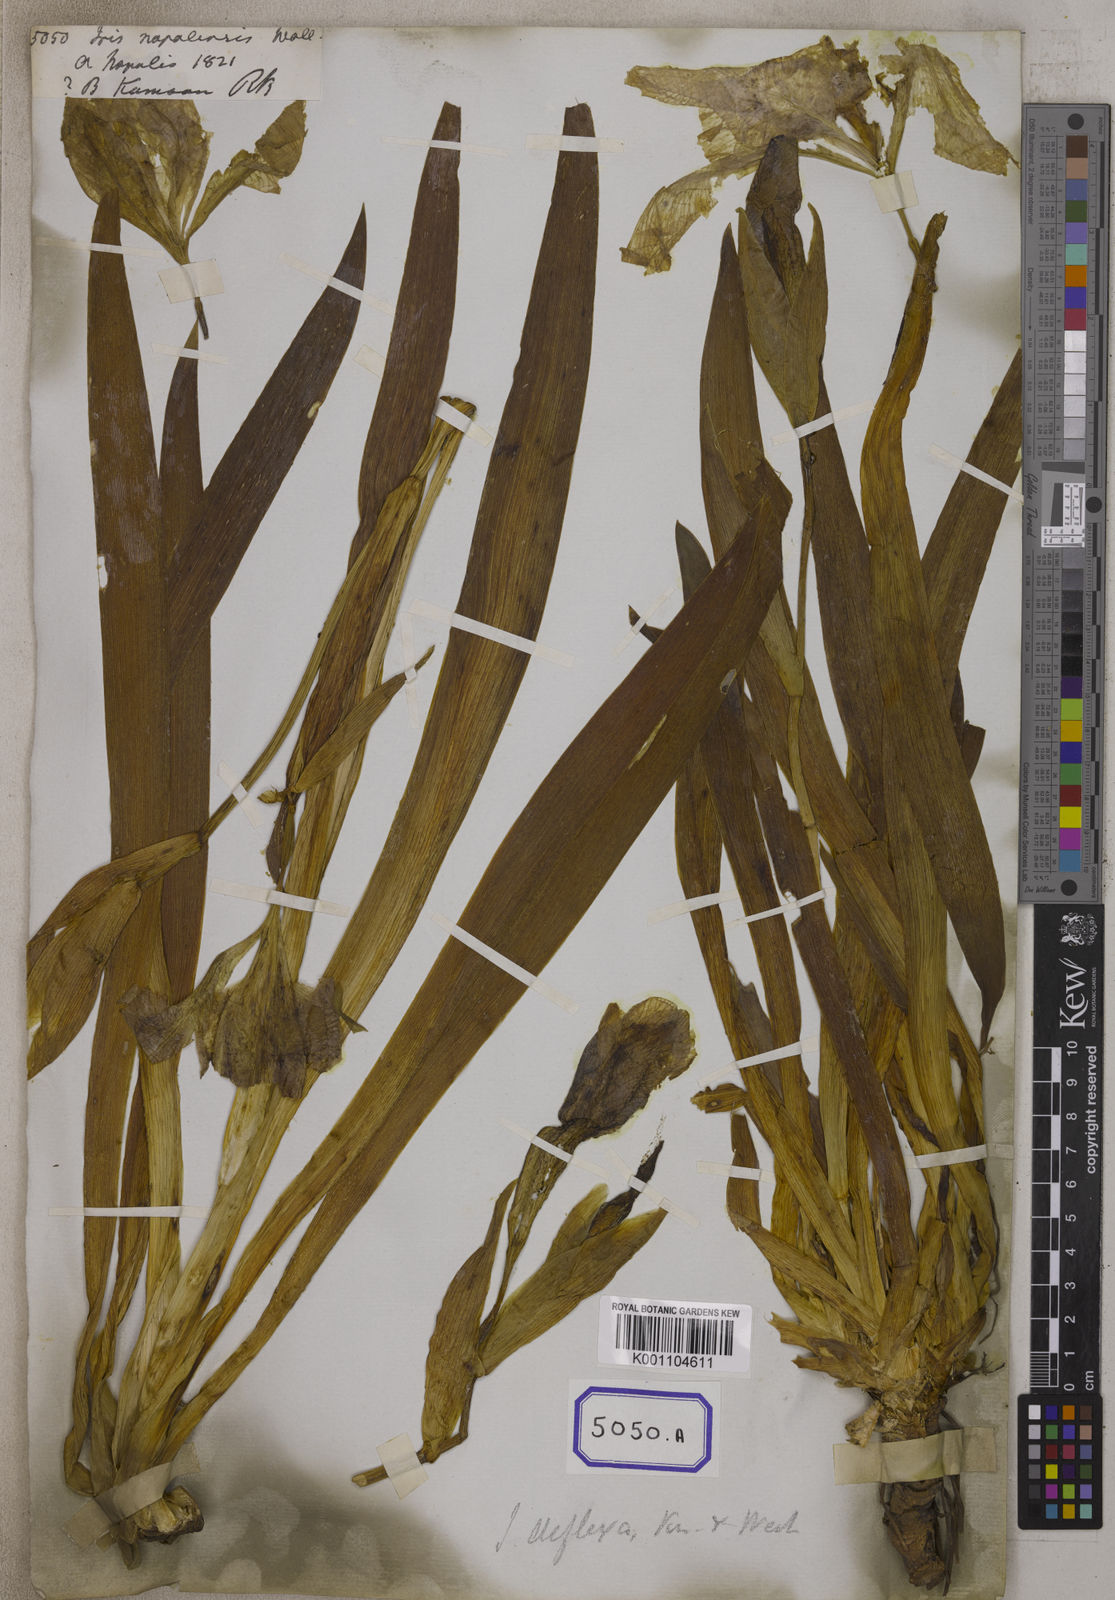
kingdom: Plantae
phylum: Tracheophyta
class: Liliopsida
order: Asparagales
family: Iridaceae
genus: Iris
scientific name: Iris
